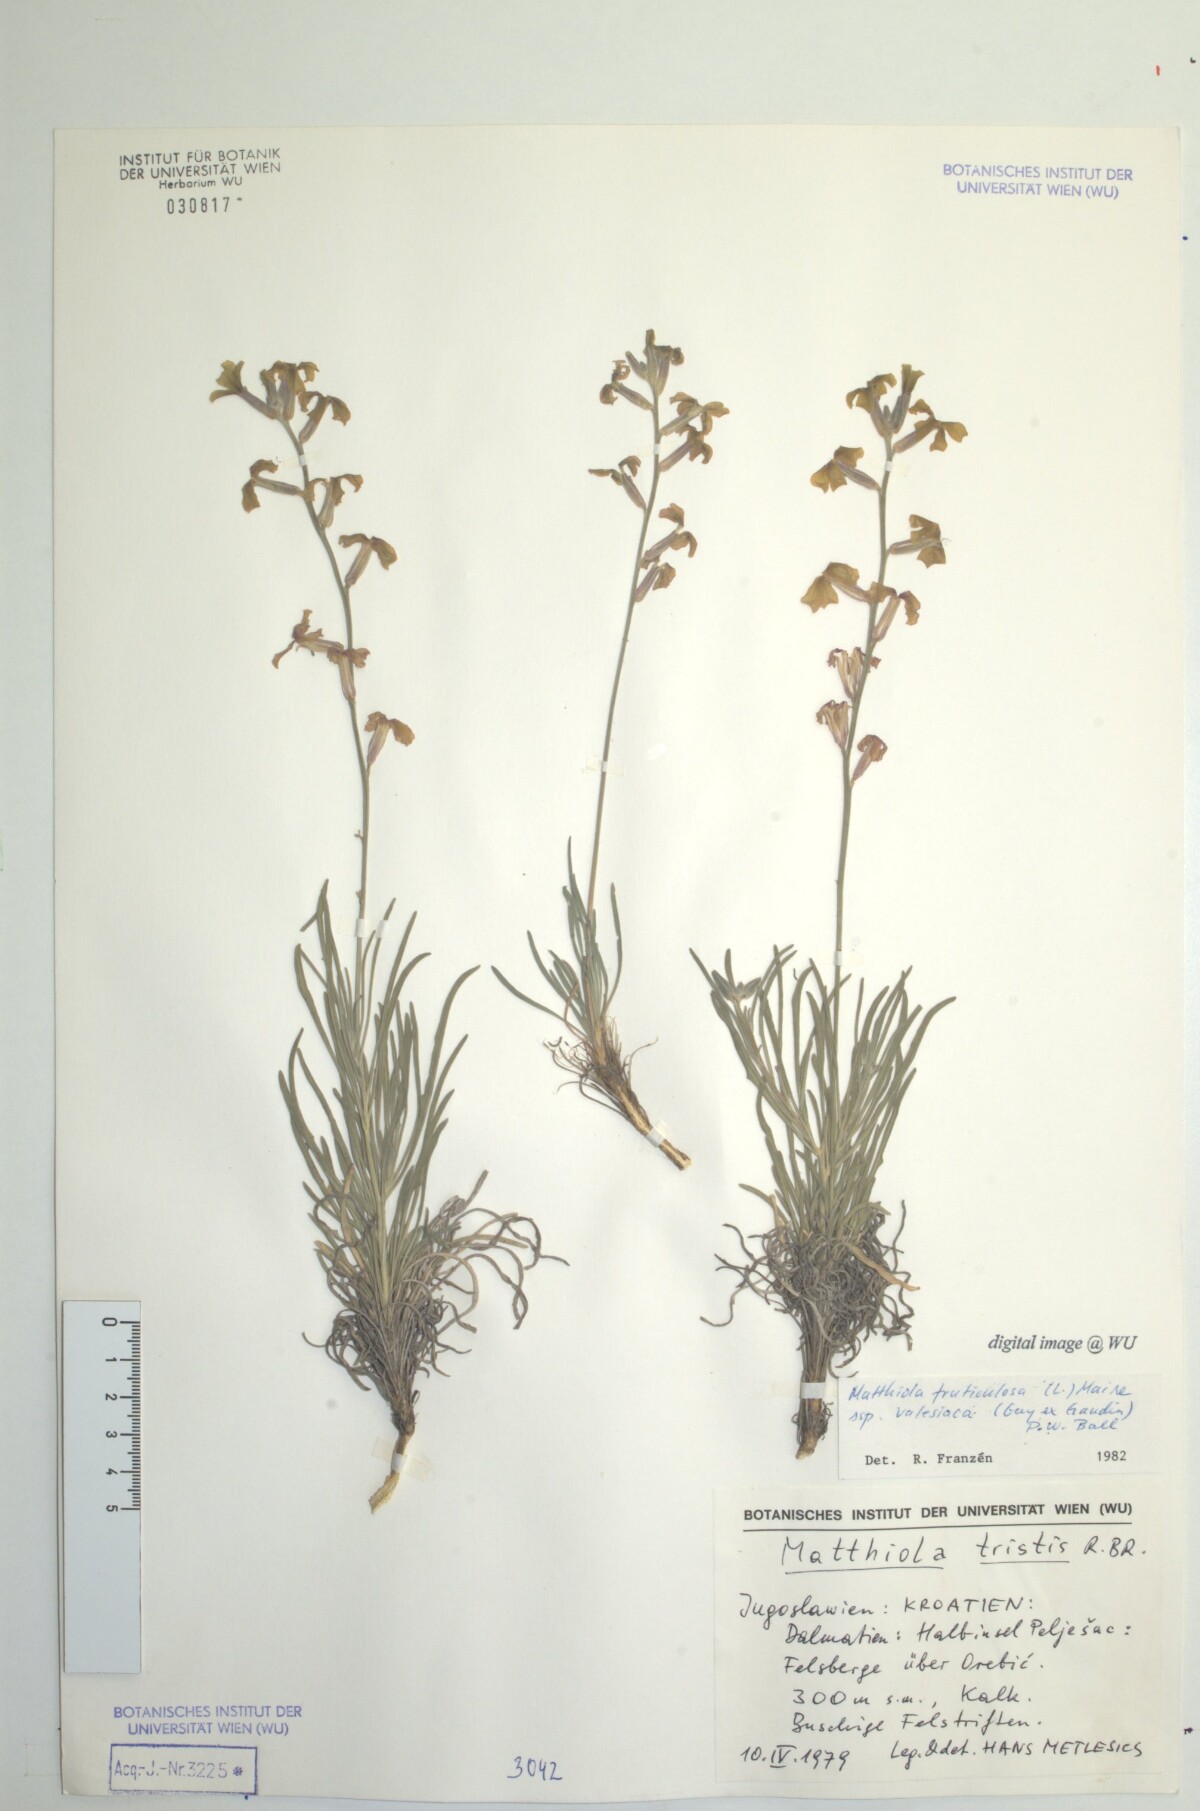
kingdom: Plantae
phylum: Tracheophyta
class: Magnoliopsida
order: Brassicales
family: Brassicaceae
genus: Matthiola
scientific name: Matthiola fruticulosa
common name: Sad stock
